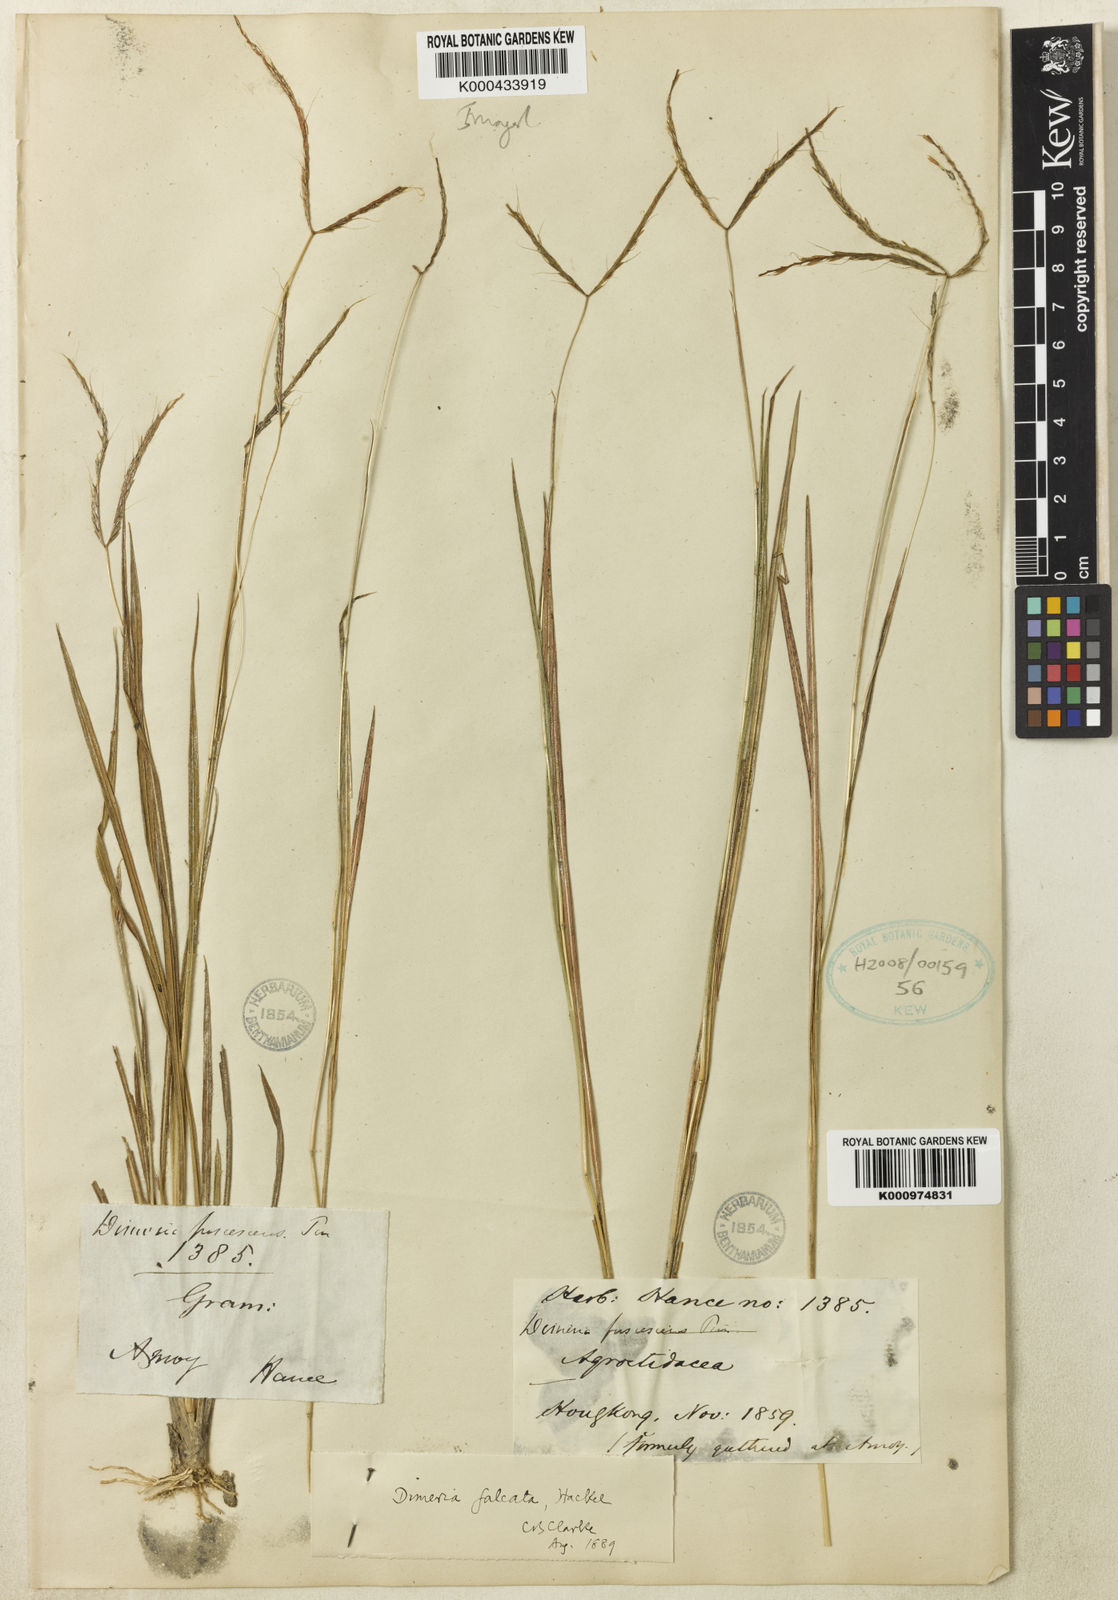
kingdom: Plantae
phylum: Tracheophyta
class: Liliopsida
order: Poales
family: Poaceae
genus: Dimeria
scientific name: Dimeria falcata
